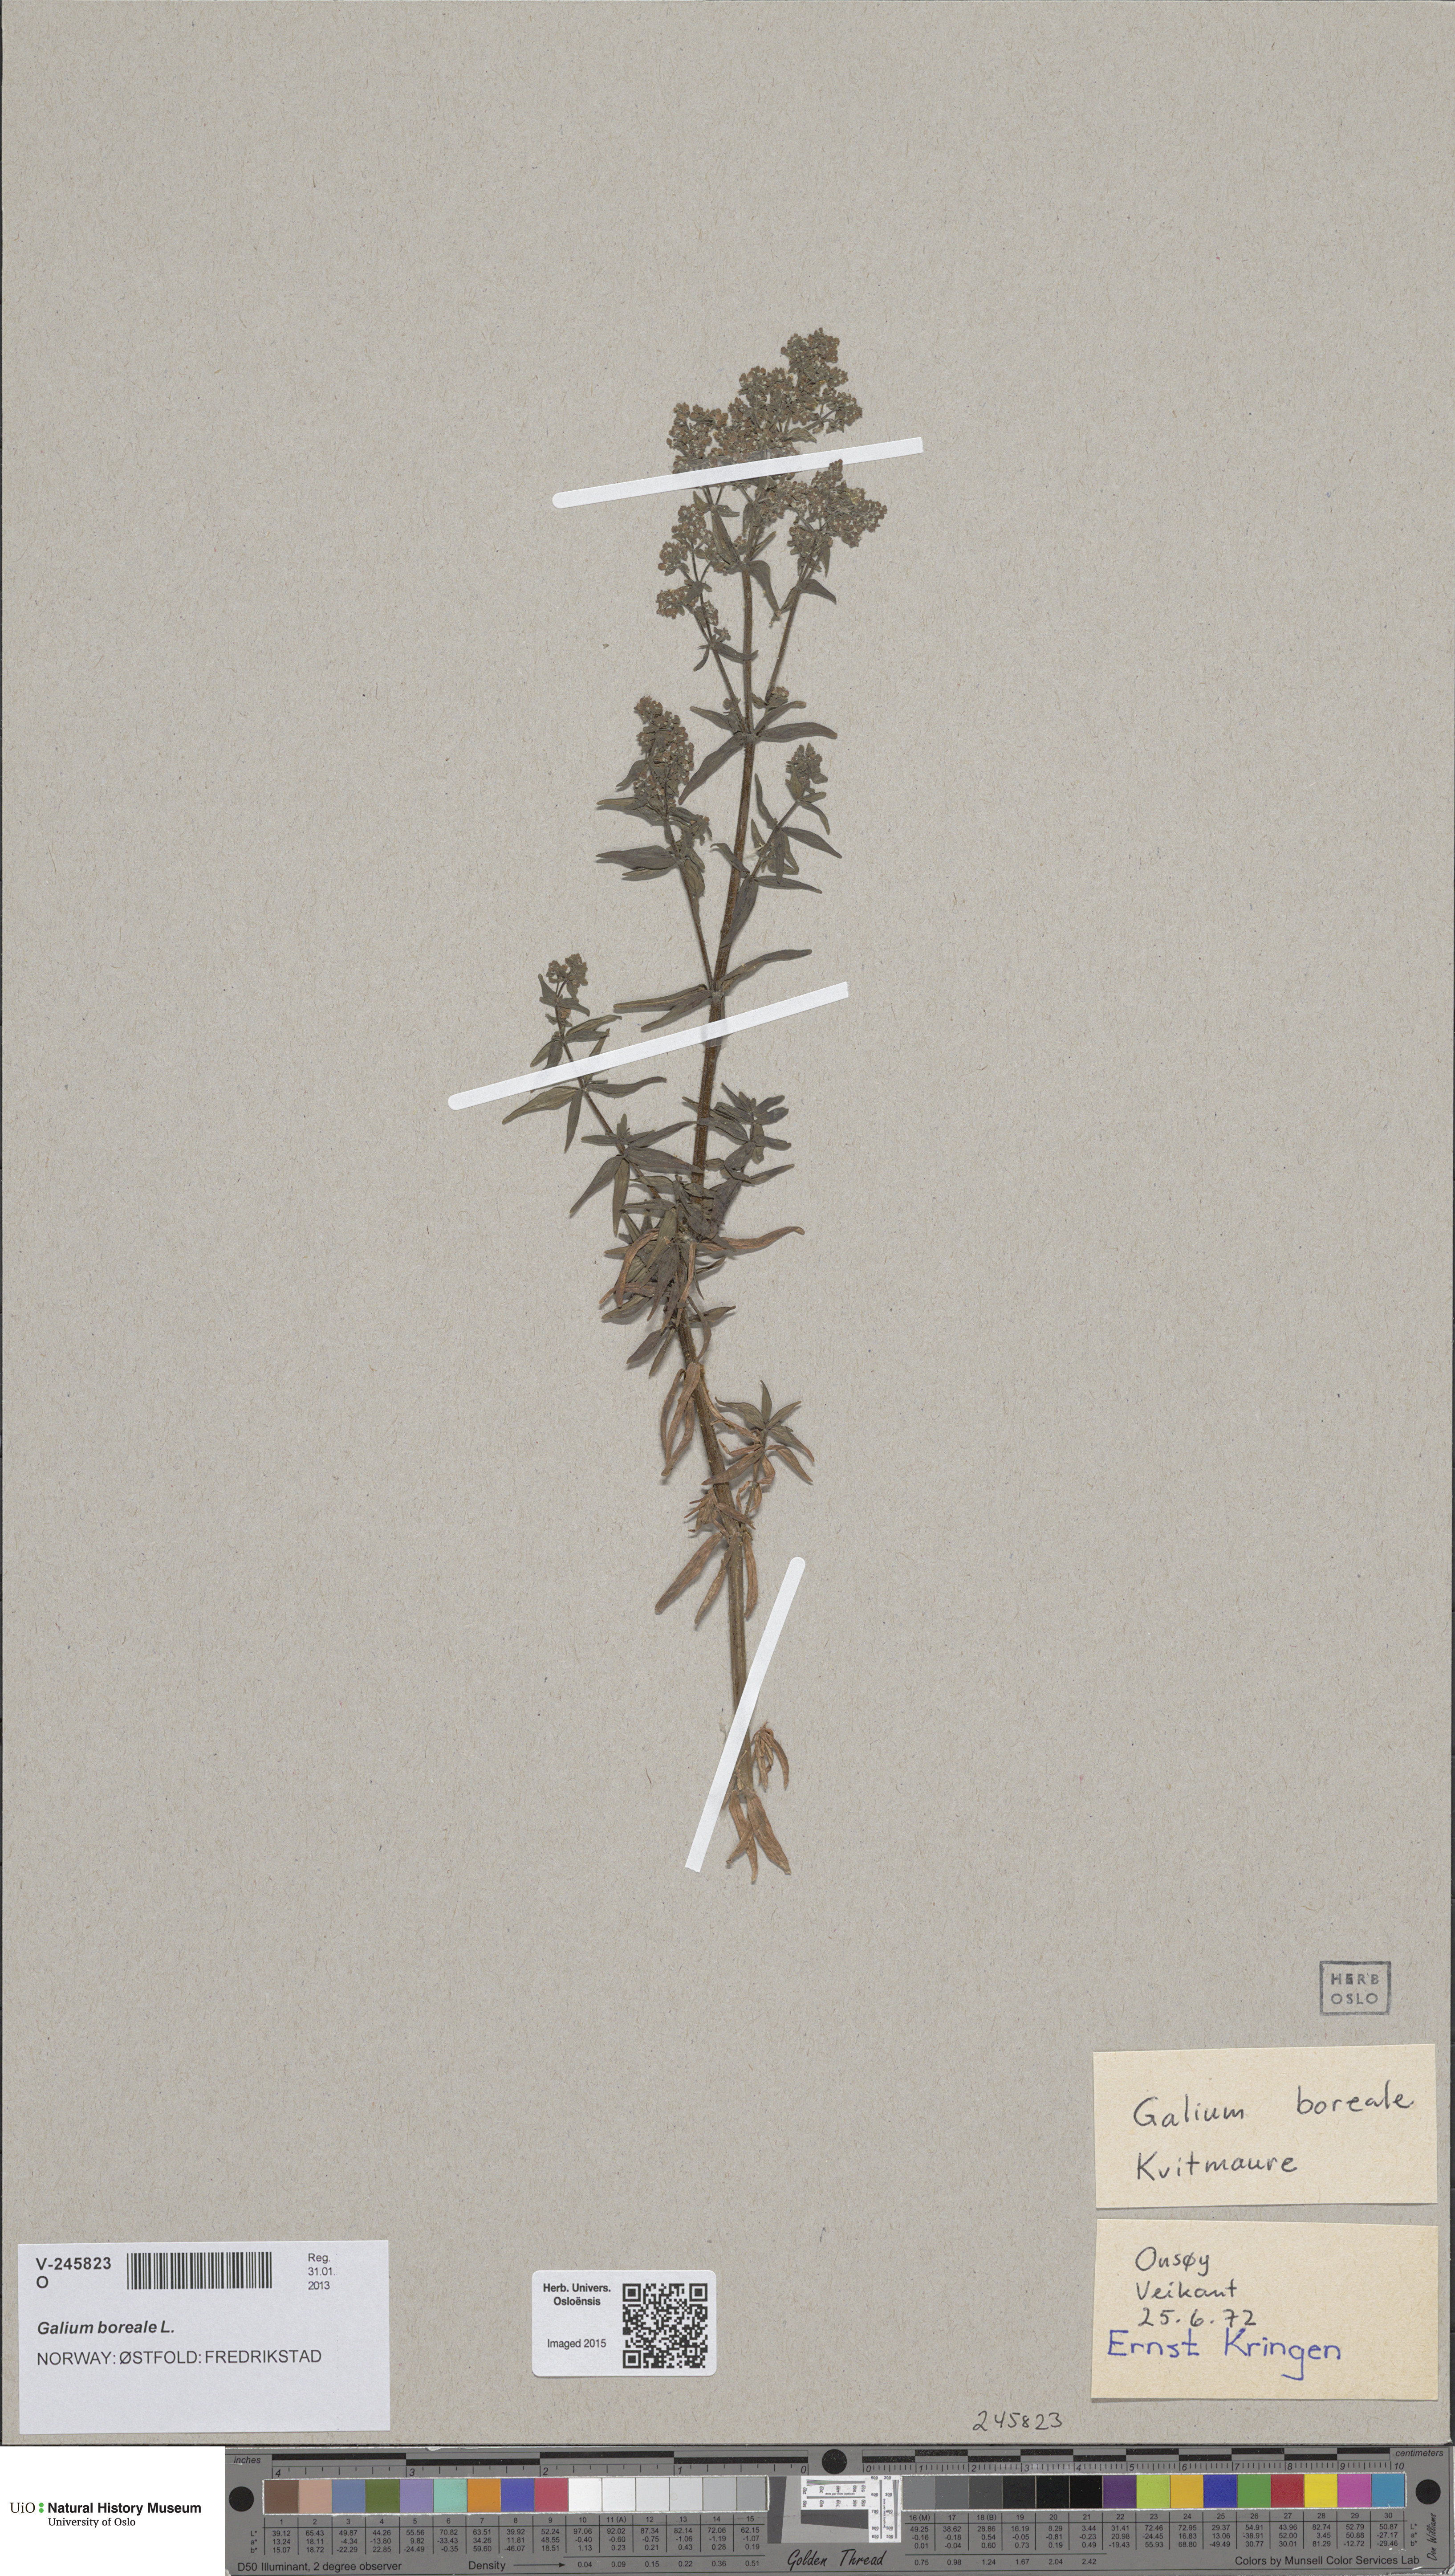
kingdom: Plantae
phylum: Tracheophyta
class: Magnoliopsida
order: Gentianales
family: Rubiaceae
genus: Galium
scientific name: Galium boreale
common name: Northern bedstraw
